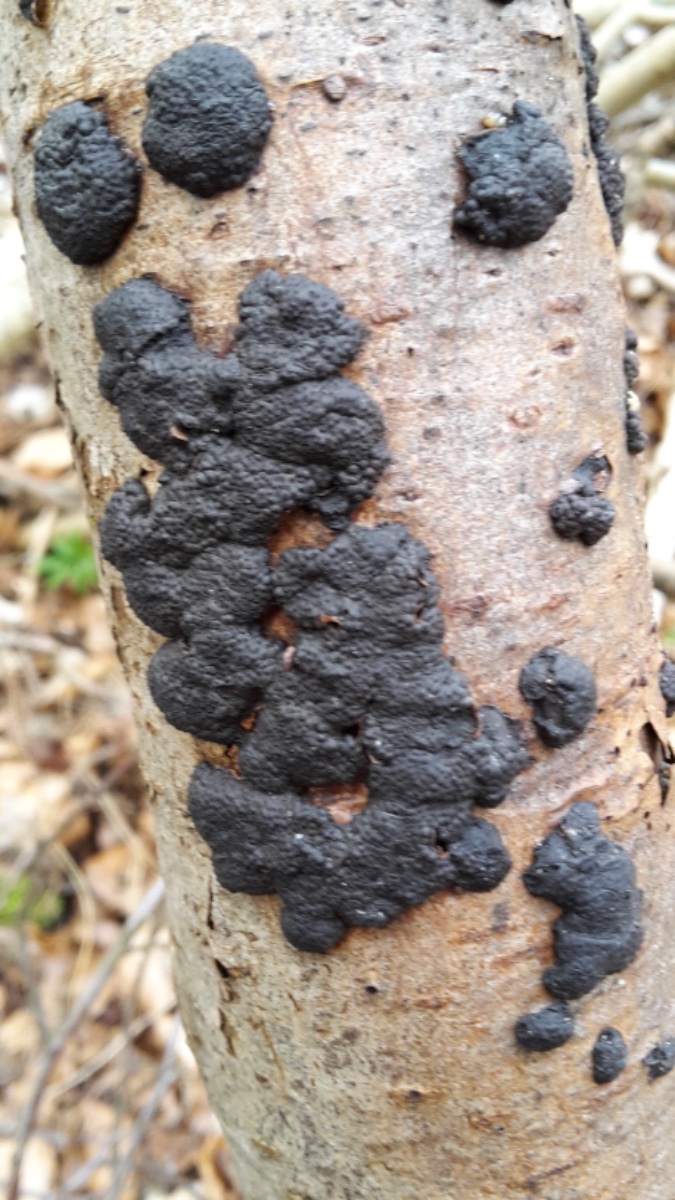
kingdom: Fungi
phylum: Ascomycota
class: Sordariomycetes
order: Xylariales
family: Hypoxylaceae
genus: Jackrogersella
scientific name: Jackrogersella cohaerens
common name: sammenflydende kulbær
